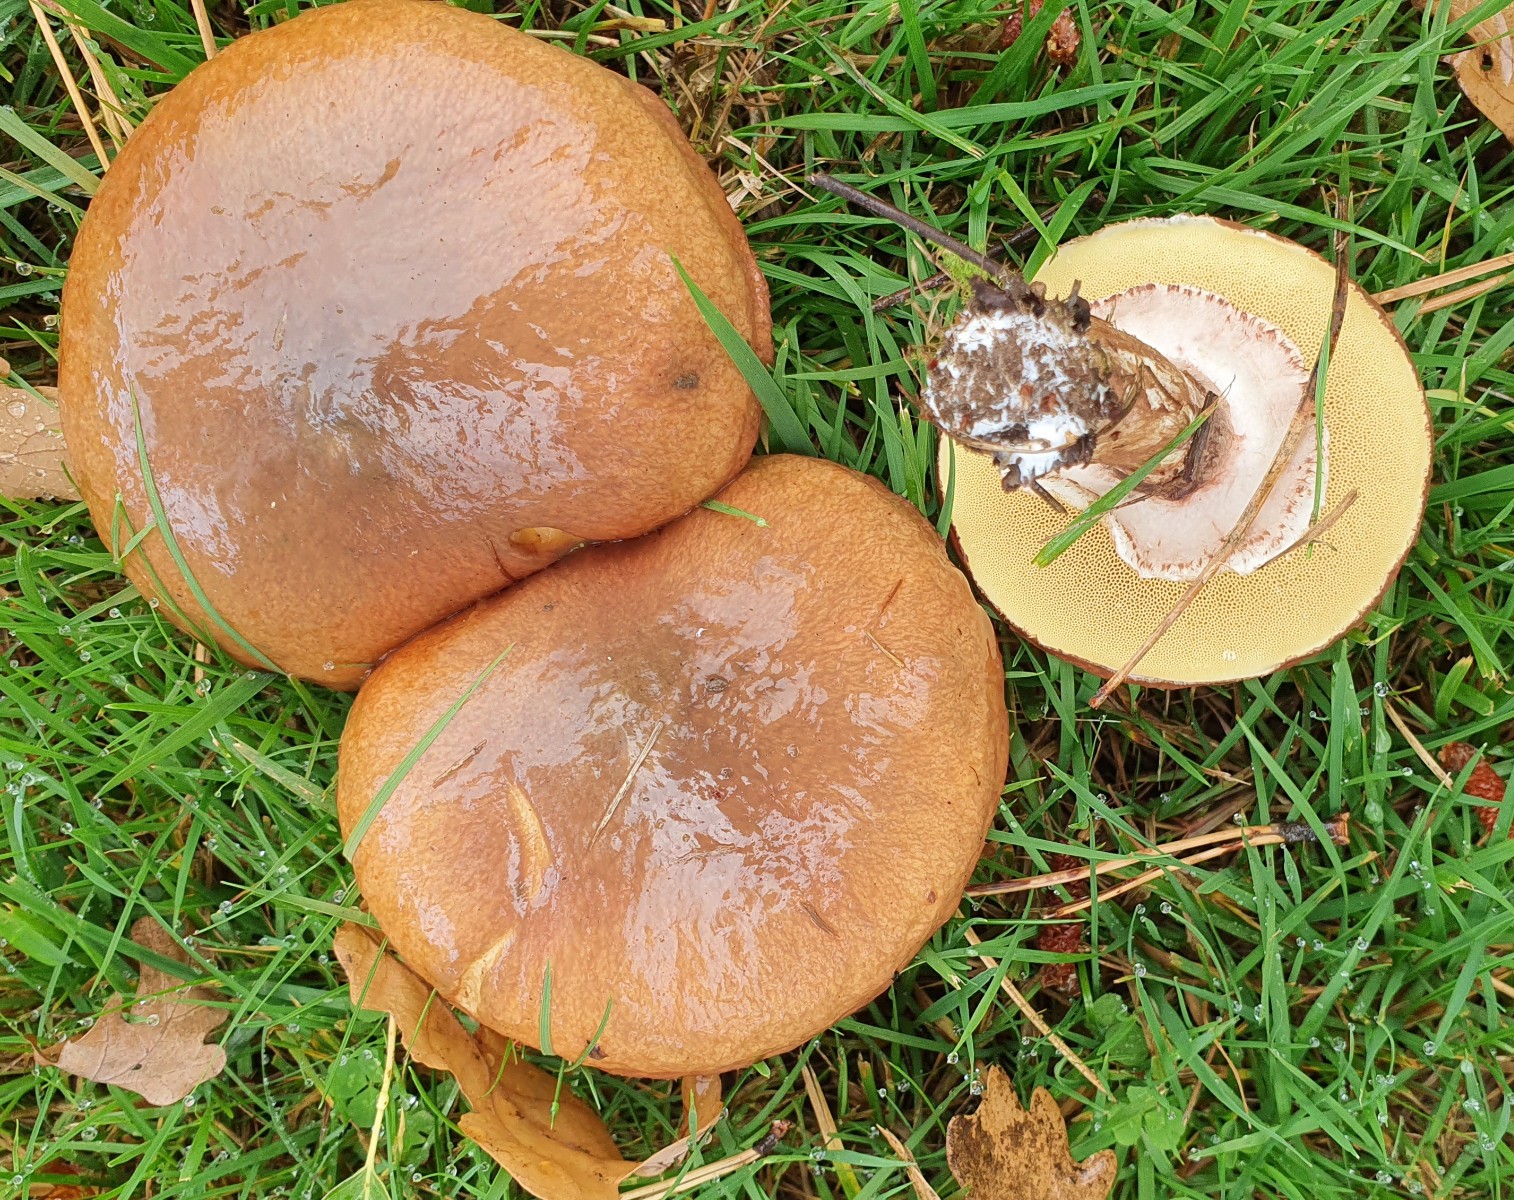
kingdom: Fungi
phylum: Basidiomycota
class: Agaricomycetes
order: Boletales
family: Suillaceae
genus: Suillus
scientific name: Suillus luteus
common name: brungul slimrørhat
